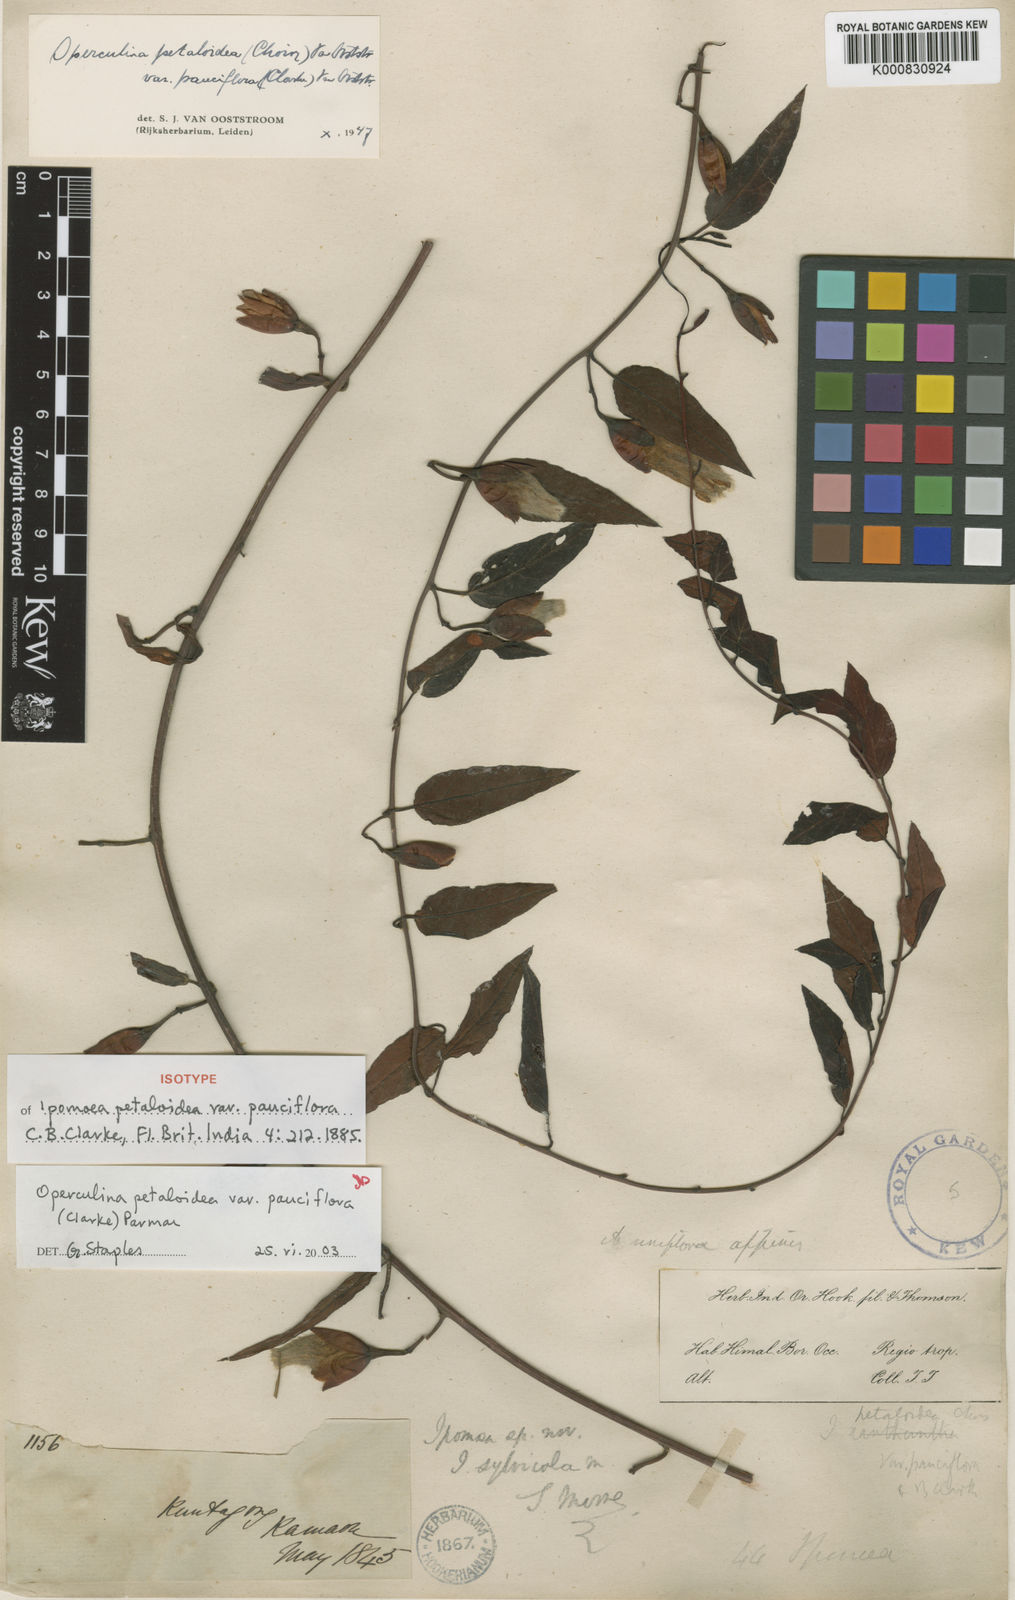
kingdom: Plantae
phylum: Tracheophyta
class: Magnoliopsida
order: Solanales
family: Convolvulaceae
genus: Operculina
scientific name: Operculina petaloidea
